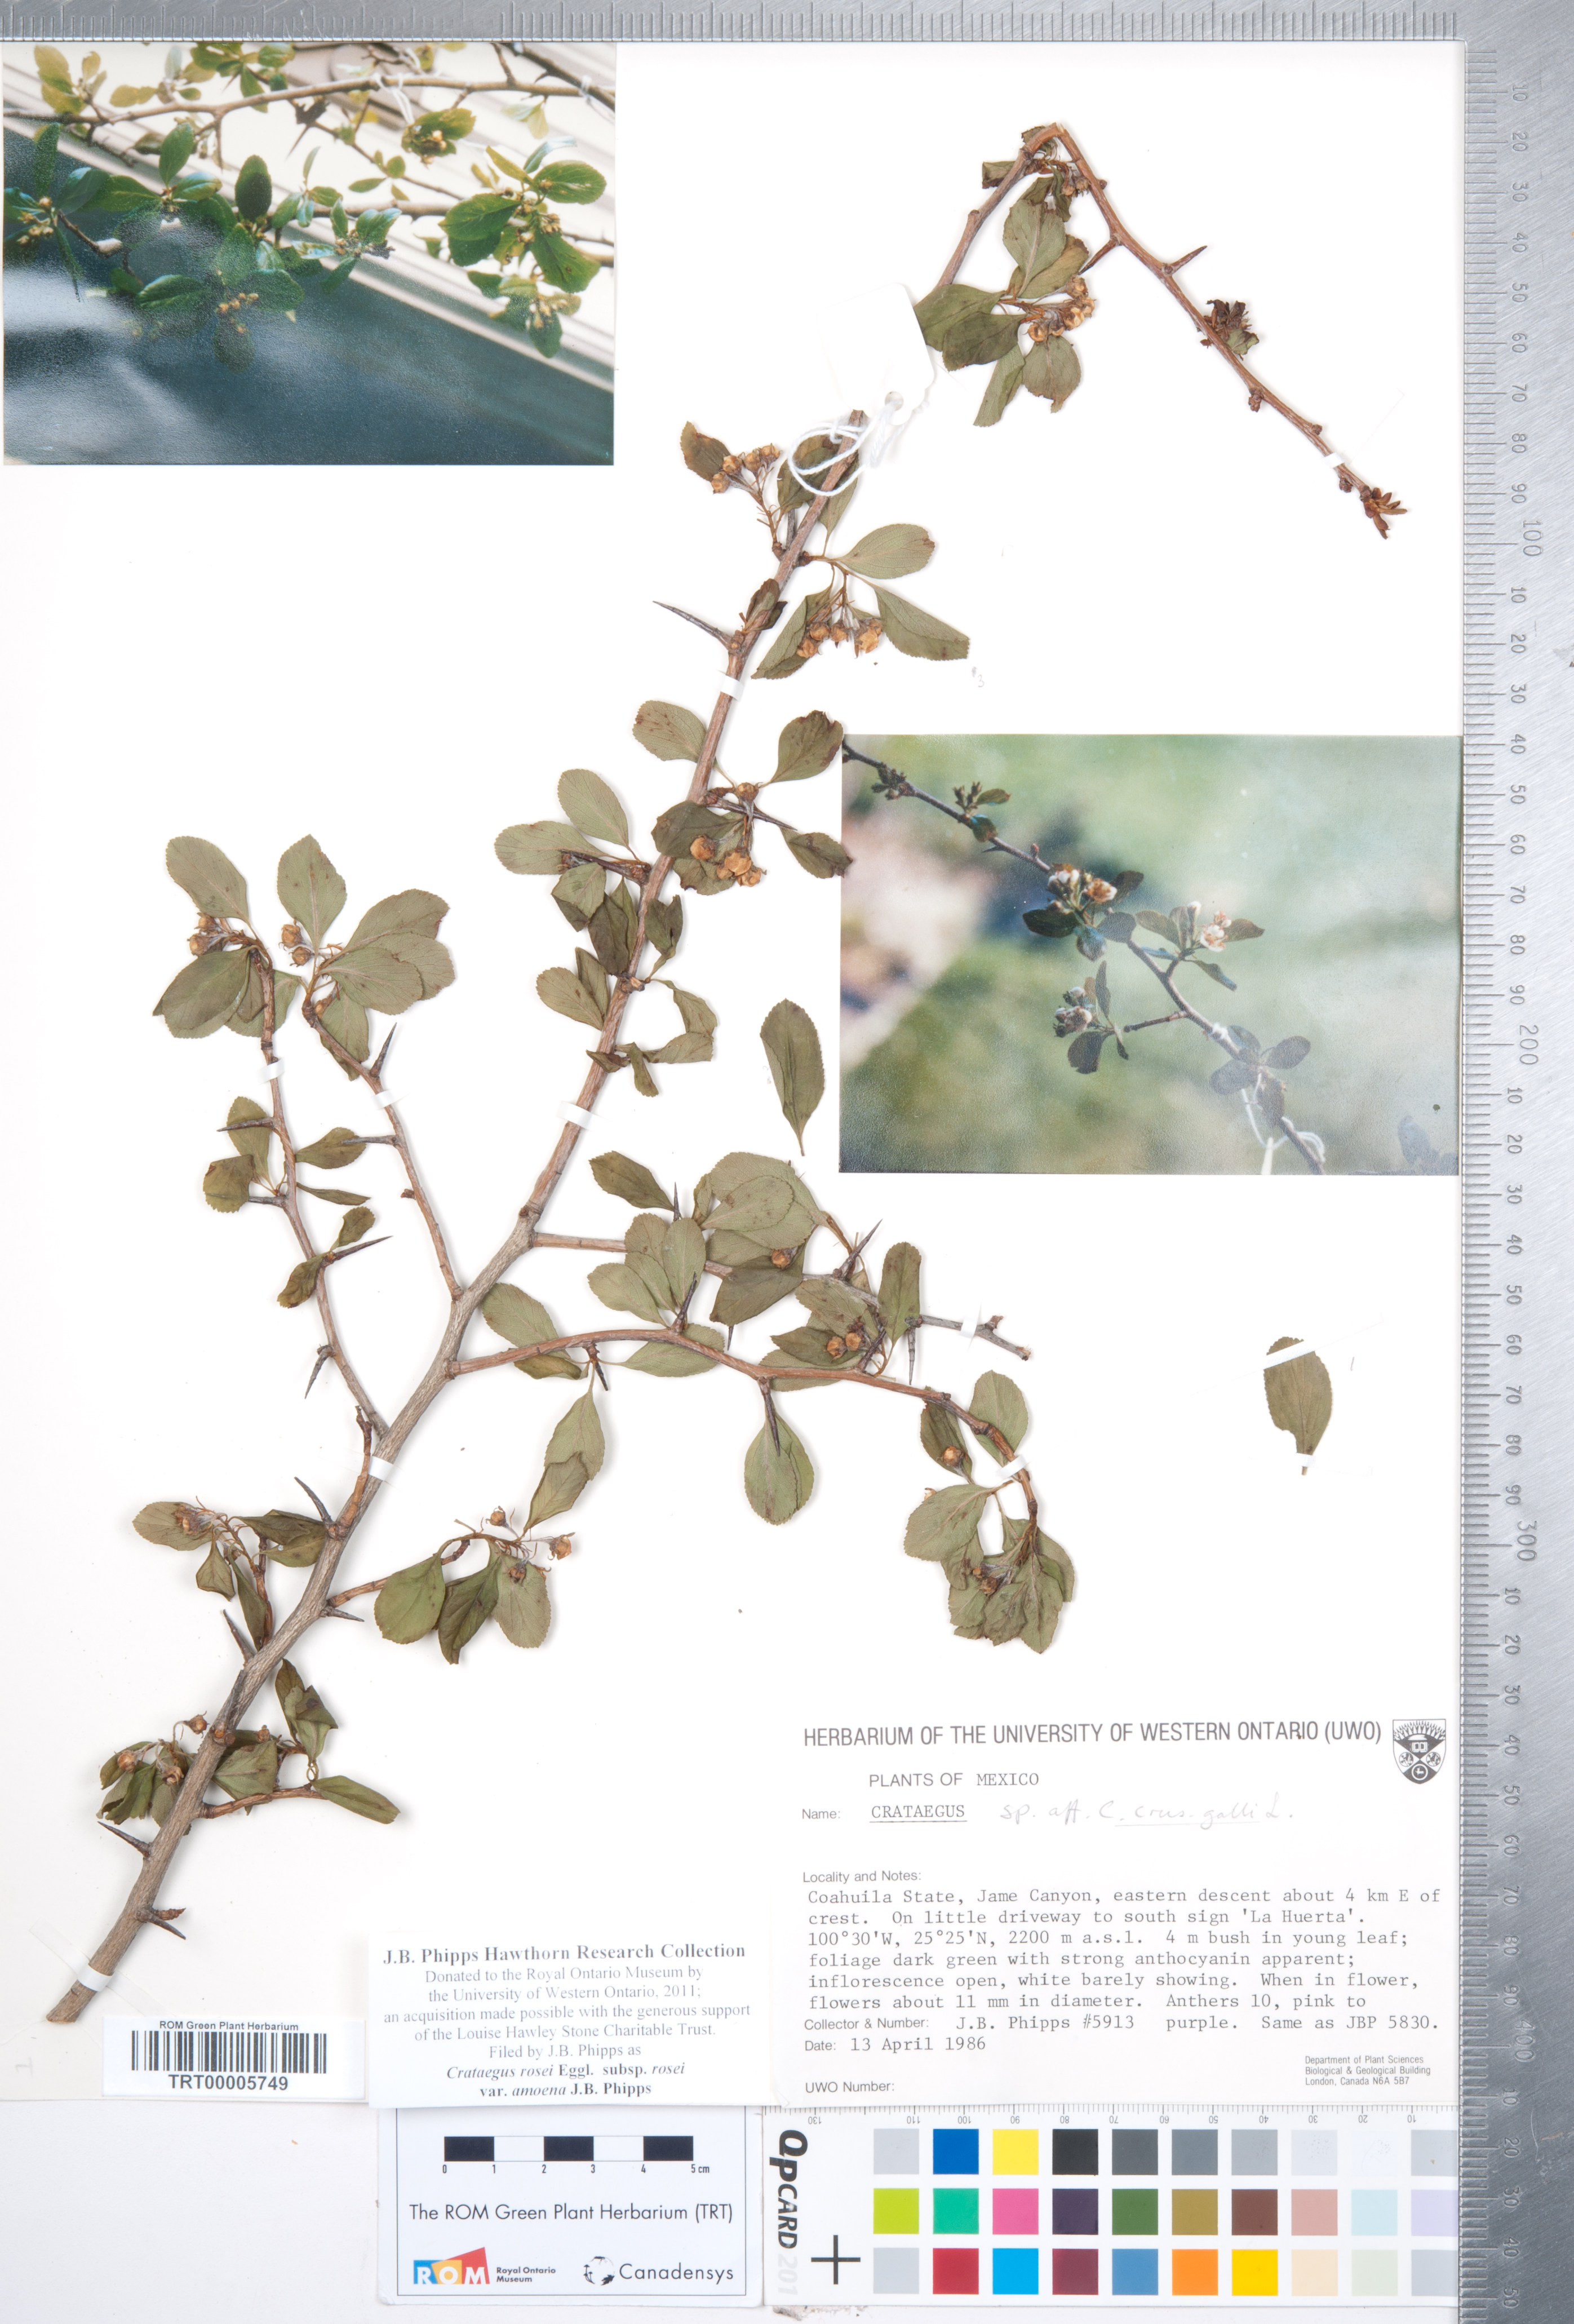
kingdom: Plantae
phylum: Tracheophyta
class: Magnoliopsida
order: Rosales
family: Rosaceae
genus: Crataegus
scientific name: Crataegus rosei
